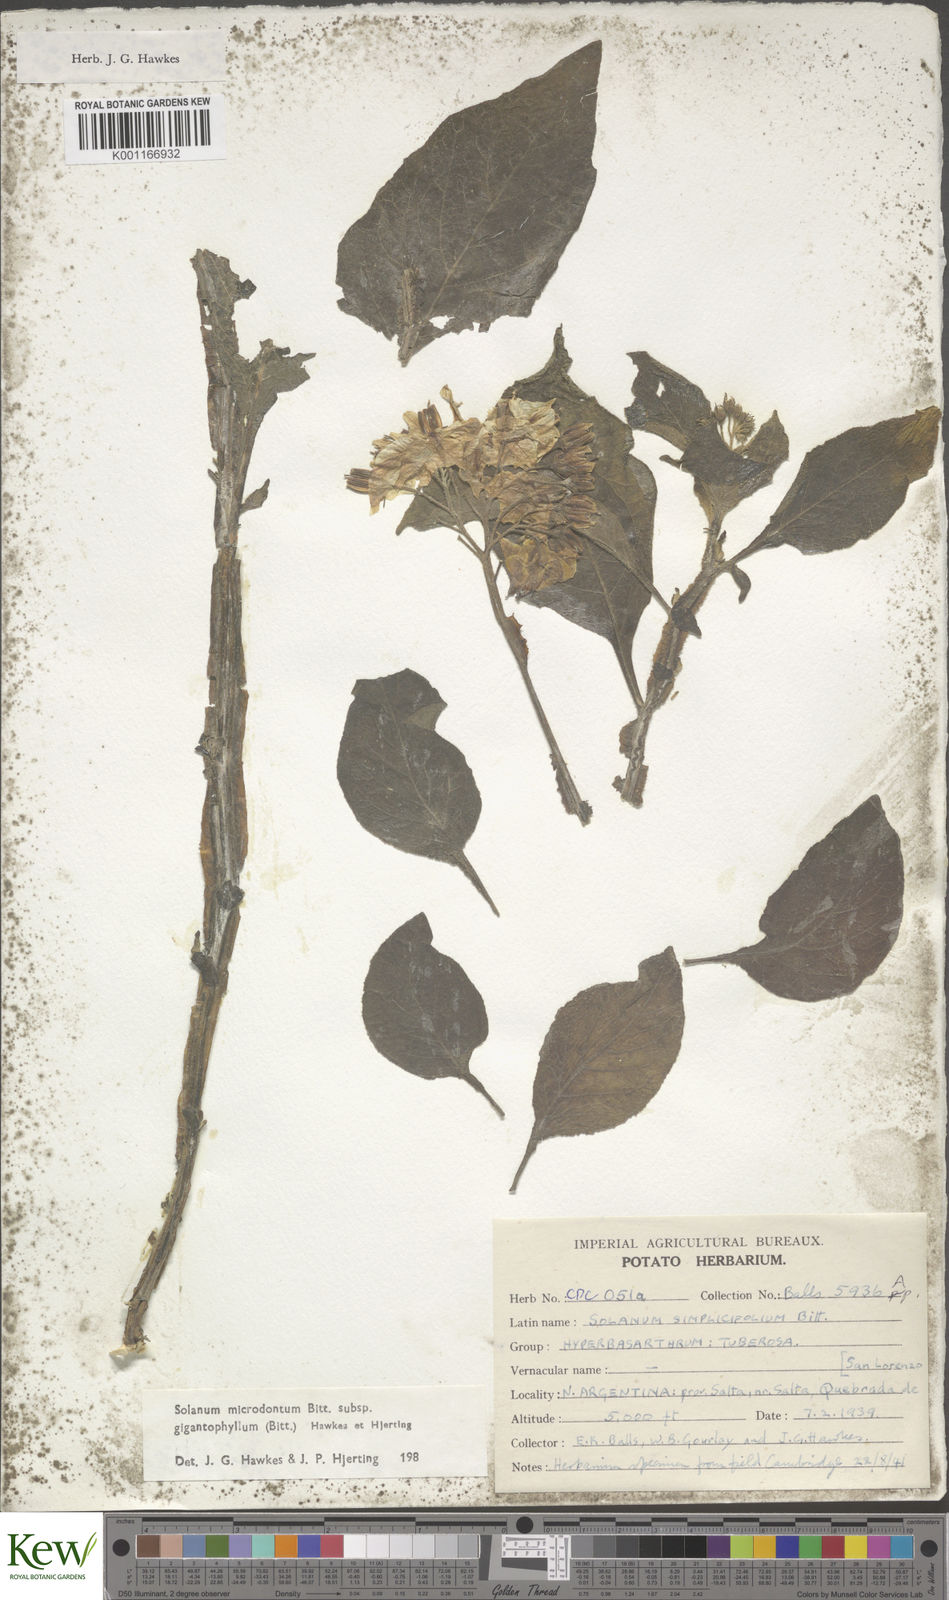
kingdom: Plantae
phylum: Tracheophyta
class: Magnoliopsida
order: Solanales
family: Solanaceae
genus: Solanum
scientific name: Solanum microdontum
